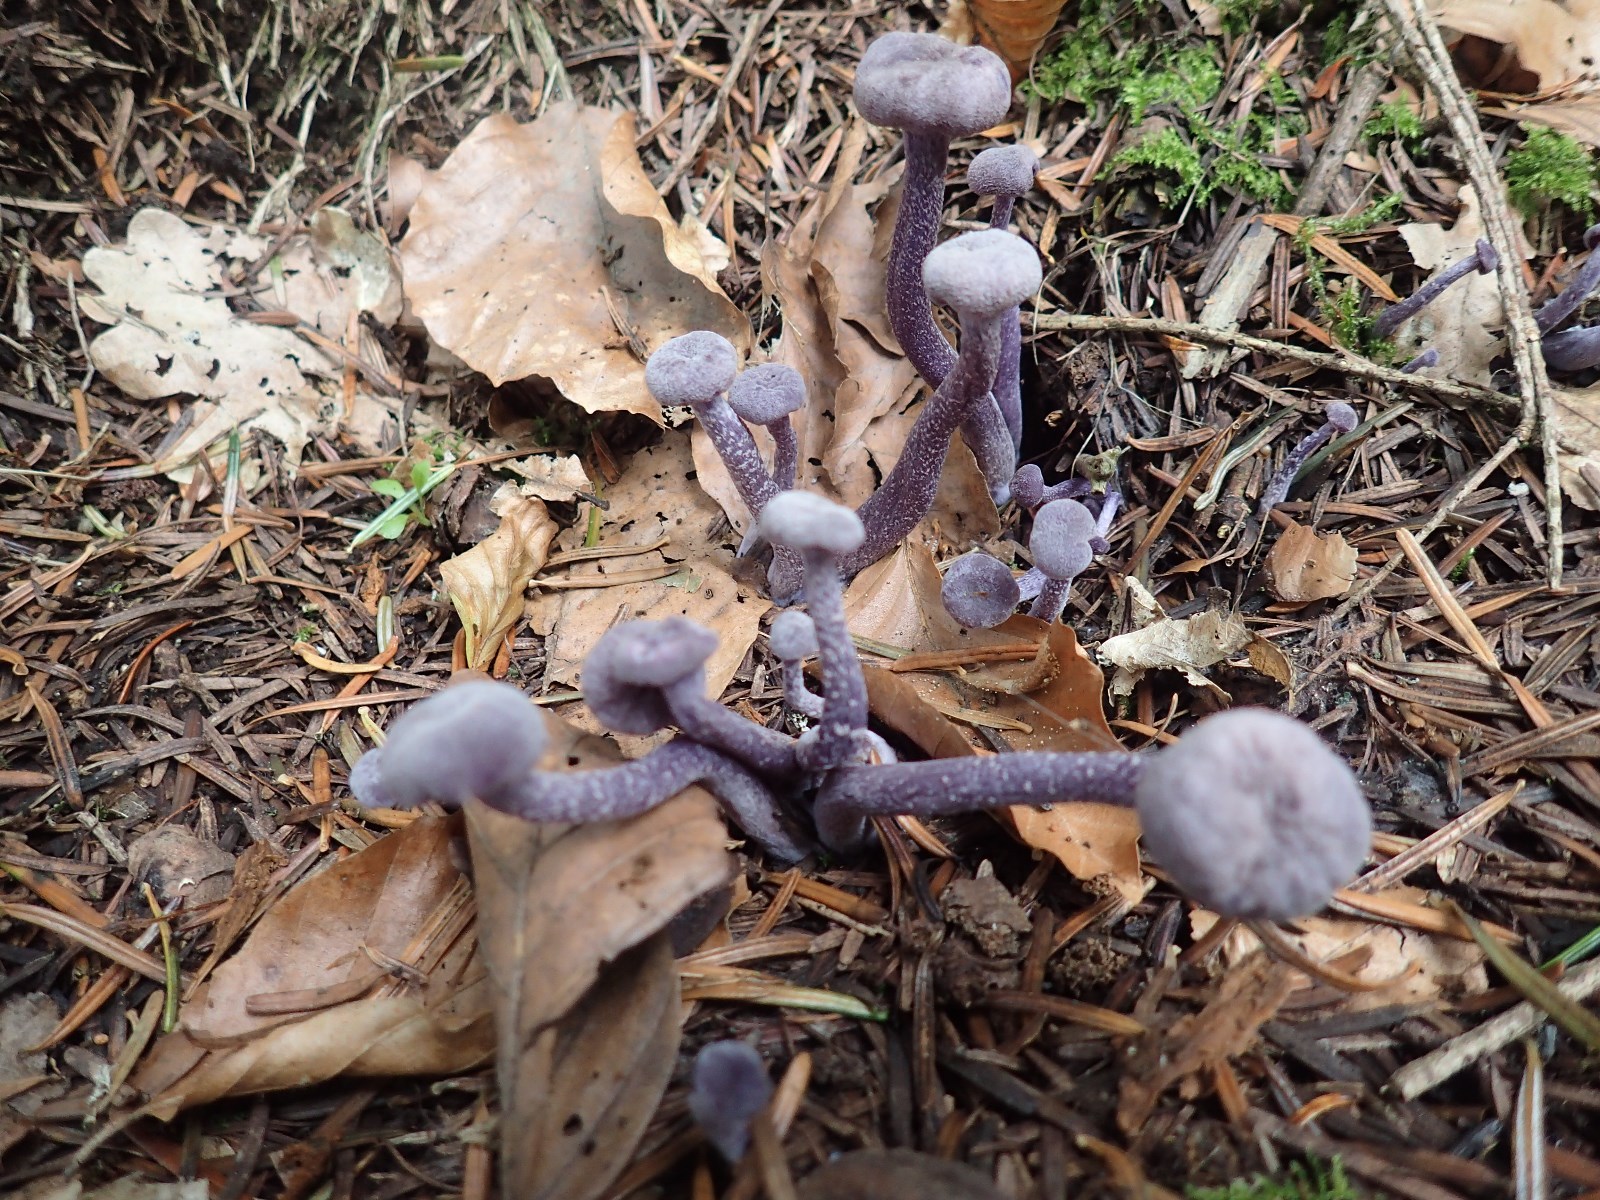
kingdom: Fungi
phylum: Basidiomycota
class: Agaricomycetes
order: Agaricales
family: Hydnangiaceae
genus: Laccaria
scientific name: Laccaria amethystina
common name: violet ametysthat
